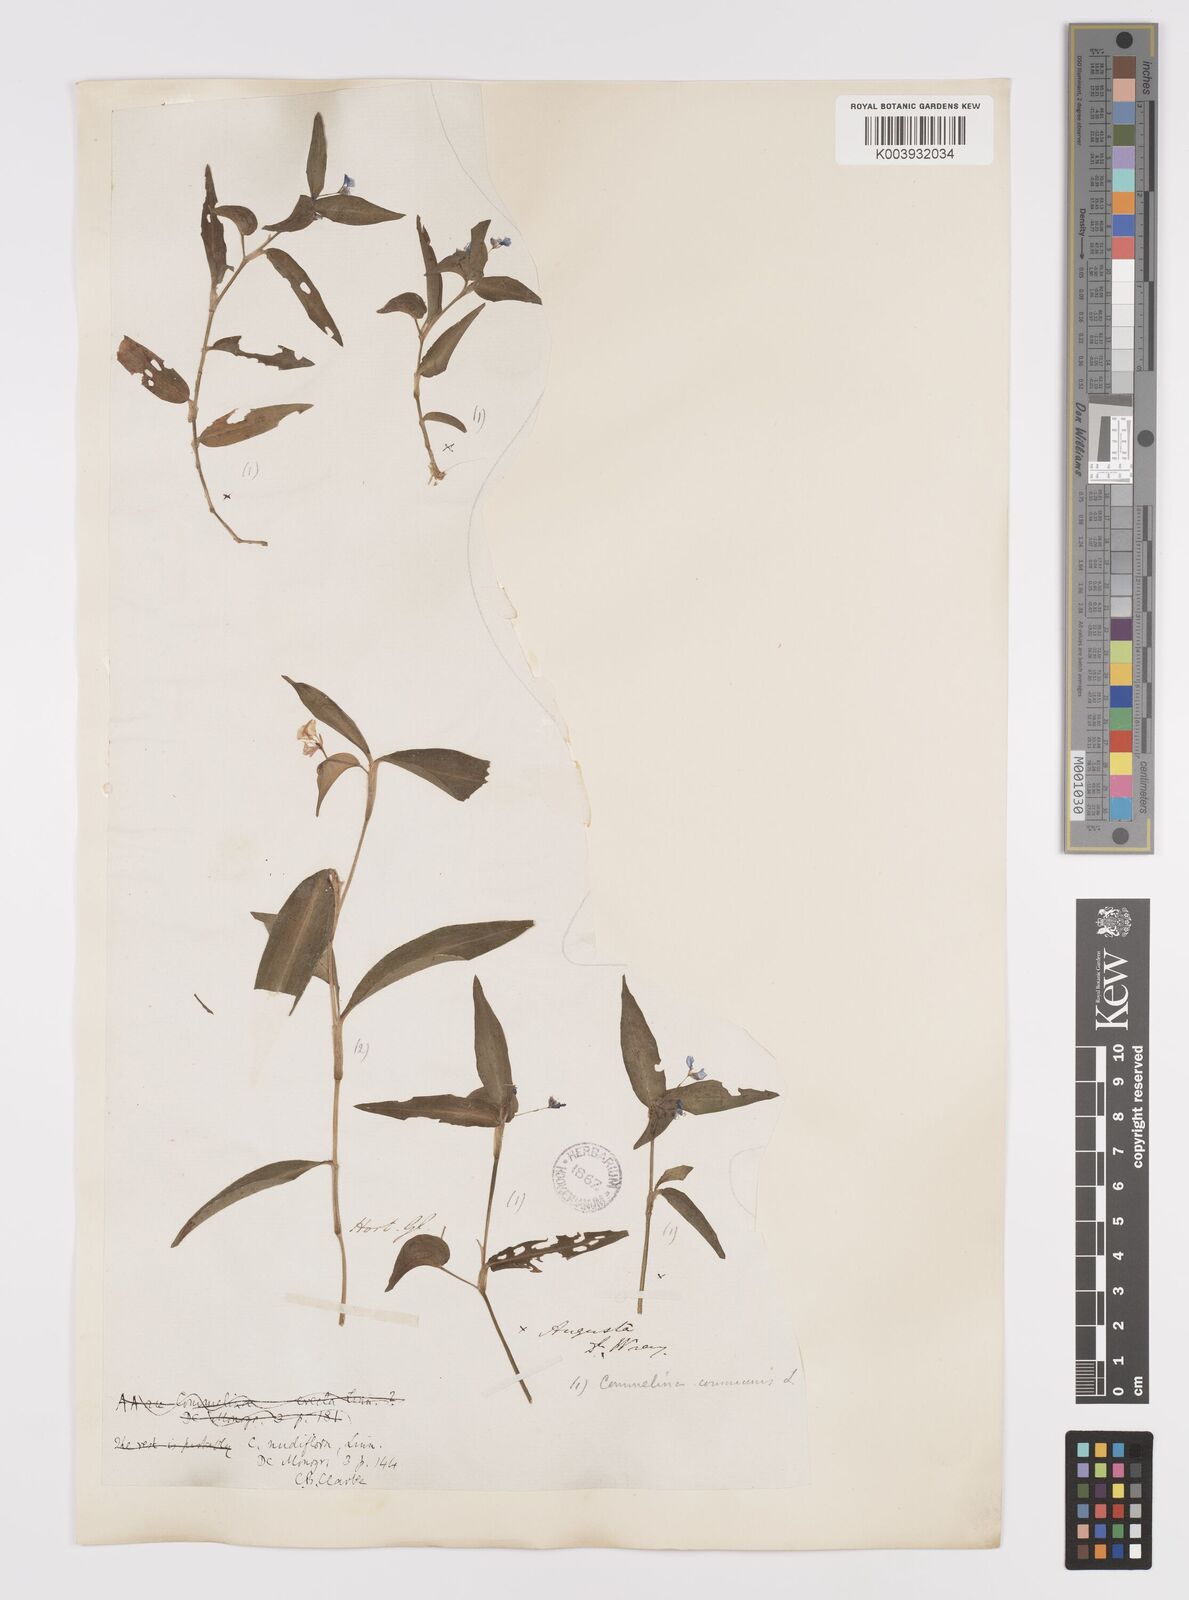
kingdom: Plantae
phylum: Tracheophyta
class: Liliopsida
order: Commelinales
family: Commelinaceae
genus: Murdannia
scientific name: Murdannia nudiflora
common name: Nakedstem dewflower
